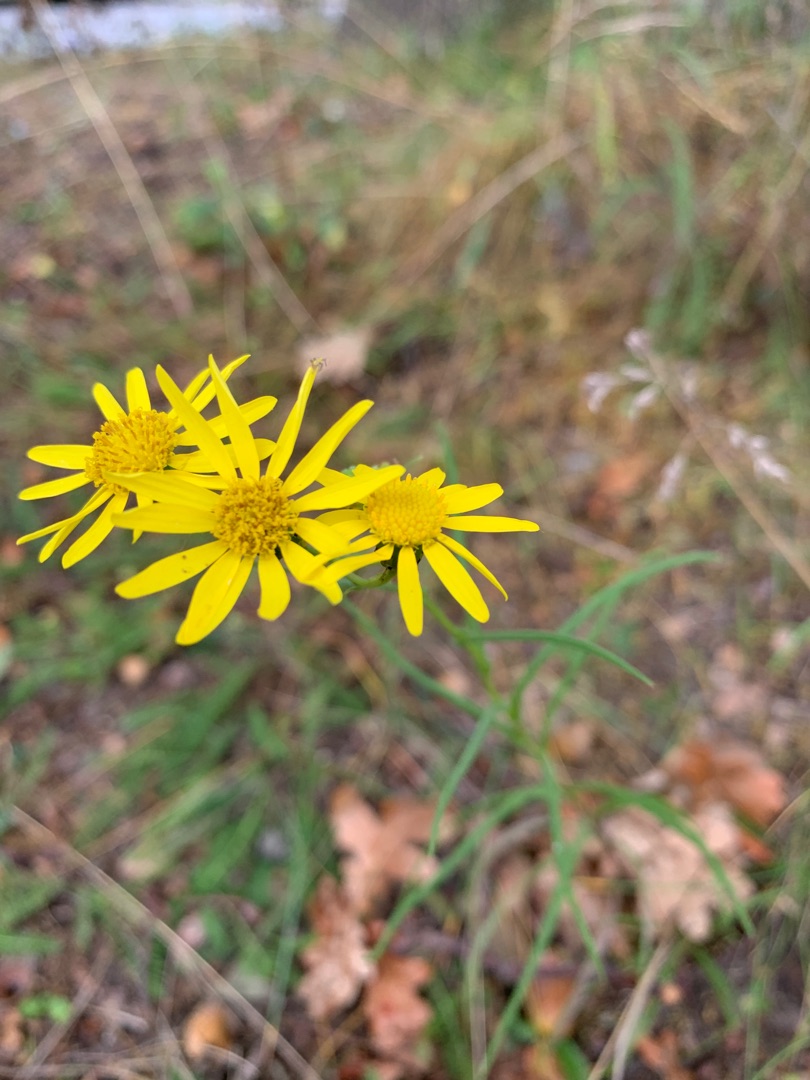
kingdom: Plantae
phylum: Tracheophyta
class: Magnoliopsida
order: Asterales
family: Asteraceae
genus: Senecio
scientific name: Senecio inaequidens
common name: Smalbladet brandbæger
